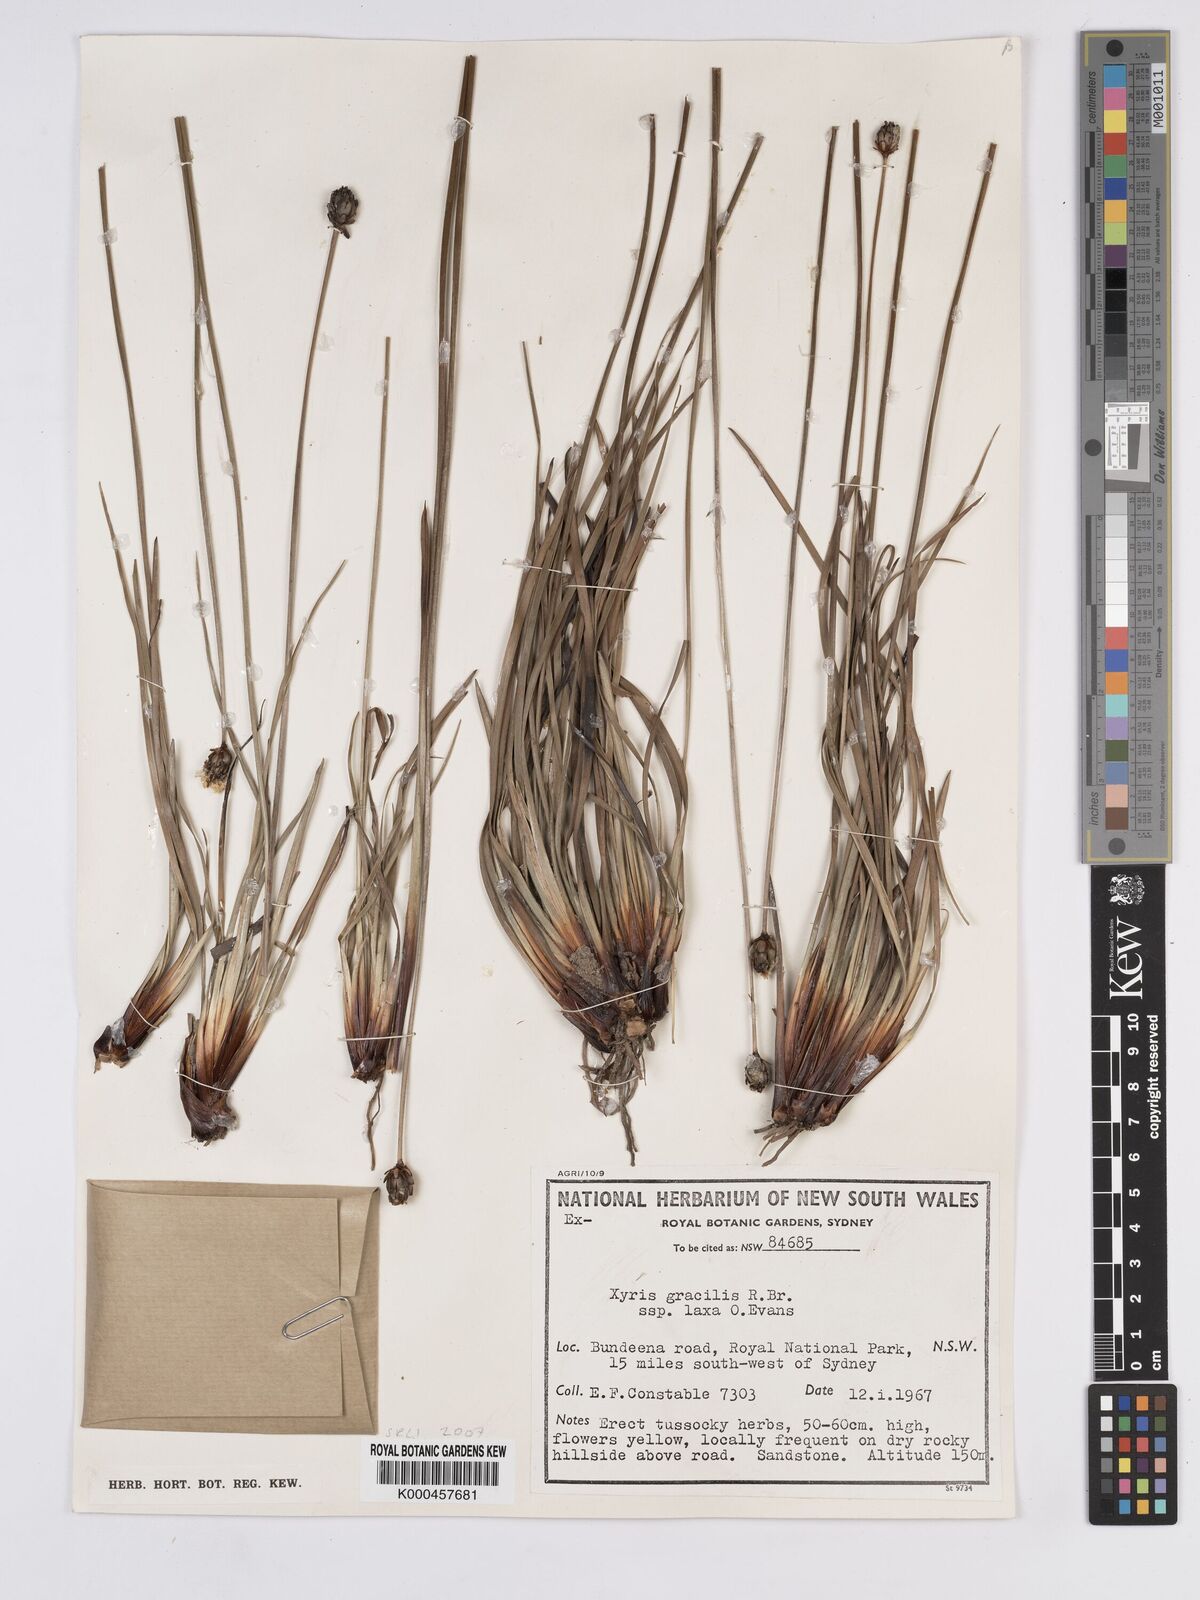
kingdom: Plantae
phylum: Tracheophyta
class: Liliopsida
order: Poales
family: Xyridaceae
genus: Xyris
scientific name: Xyris bracteata
